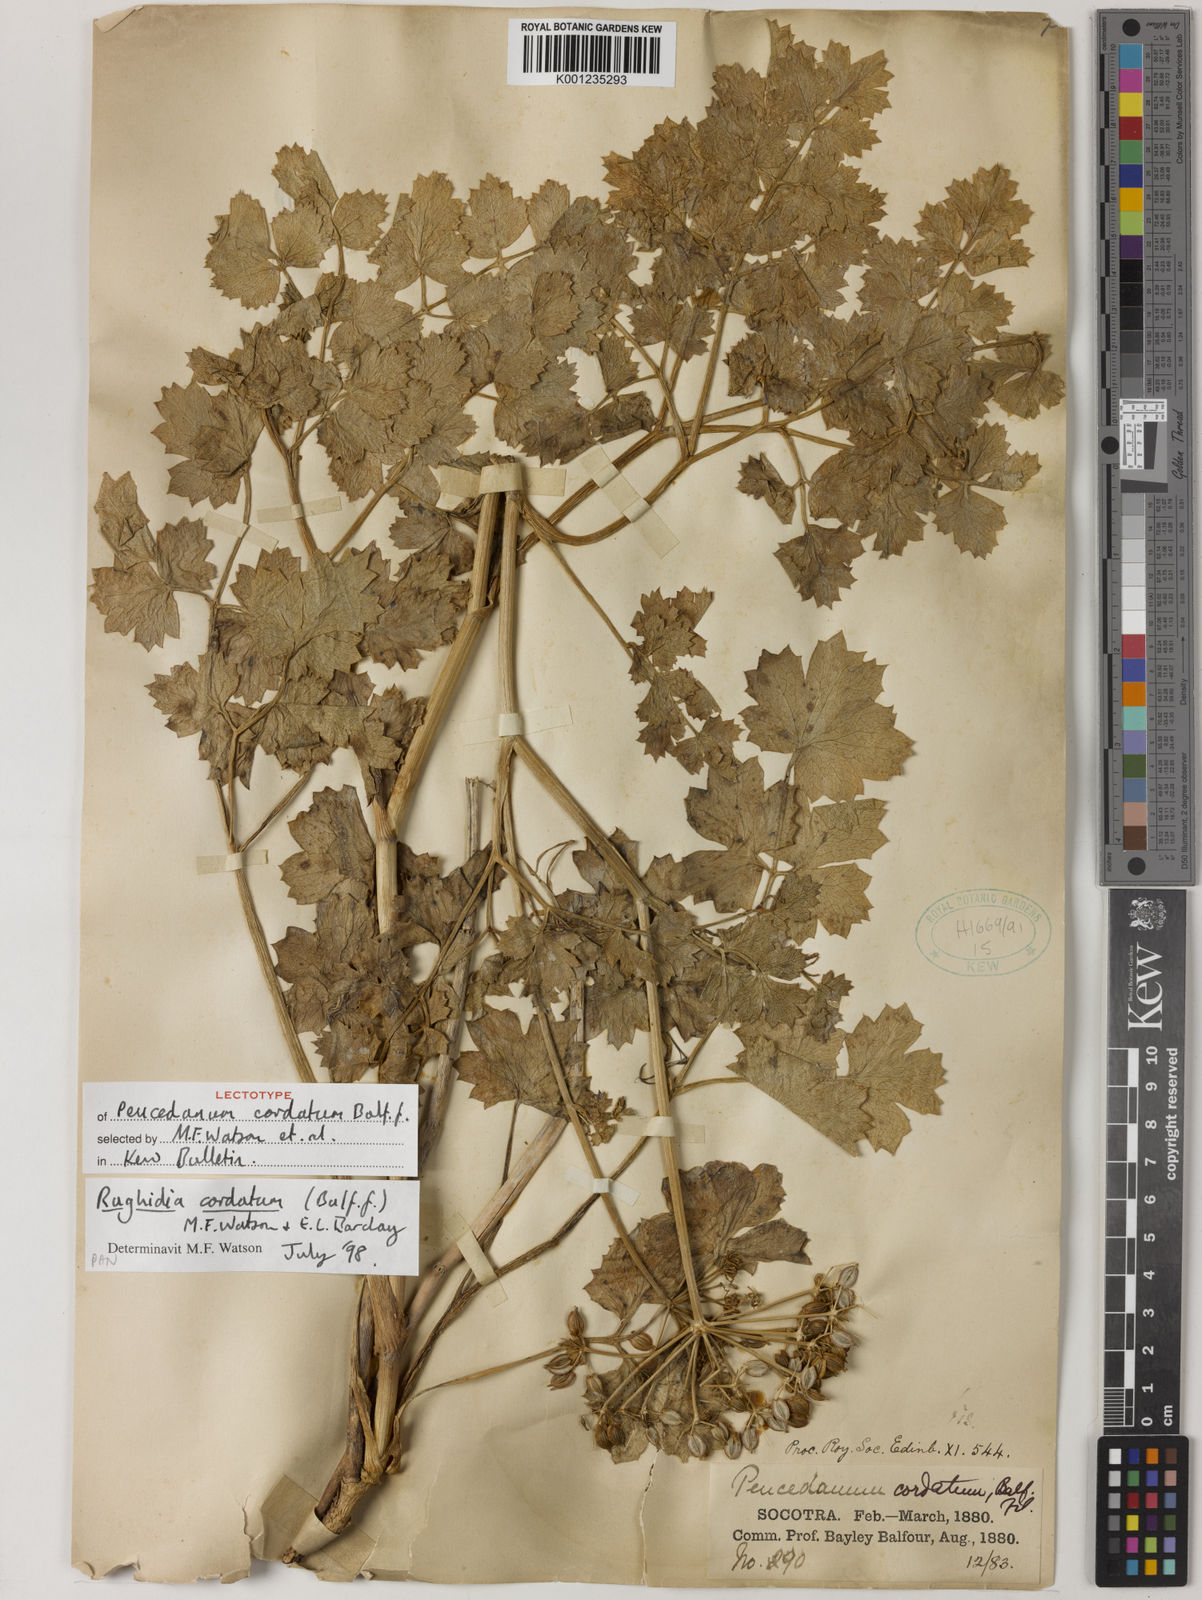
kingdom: Plantae
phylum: Tracheophyta
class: Magnoliopsida
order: Apiales
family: Apiaceae
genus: Rughidia
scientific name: Rughidia cordata
